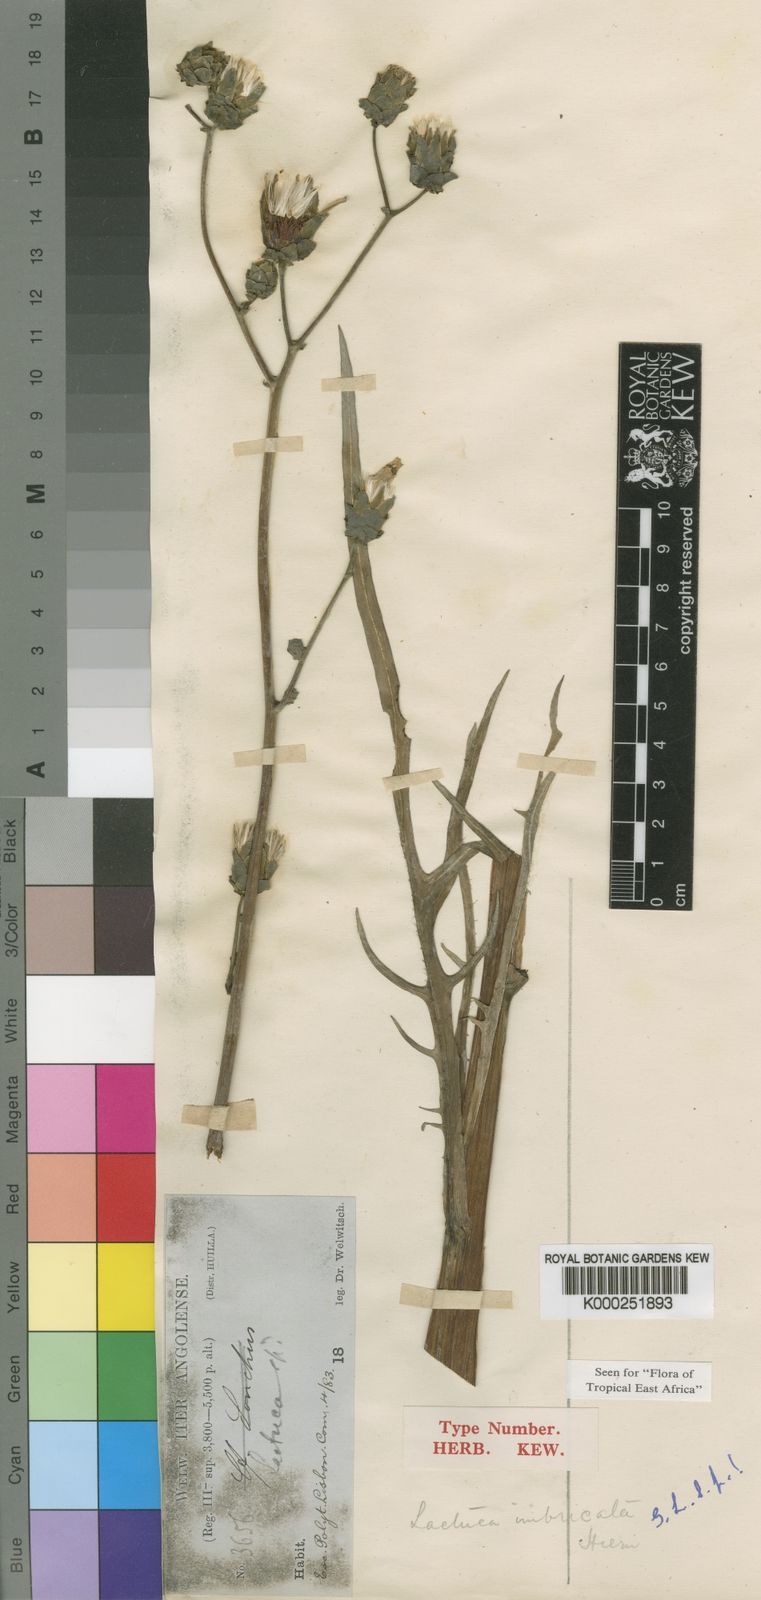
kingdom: Plantae
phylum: Tracheophyta
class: Magnoliopsida
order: Asterales
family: Asteraceae
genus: Lactuca
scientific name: Lactuca imbricata
